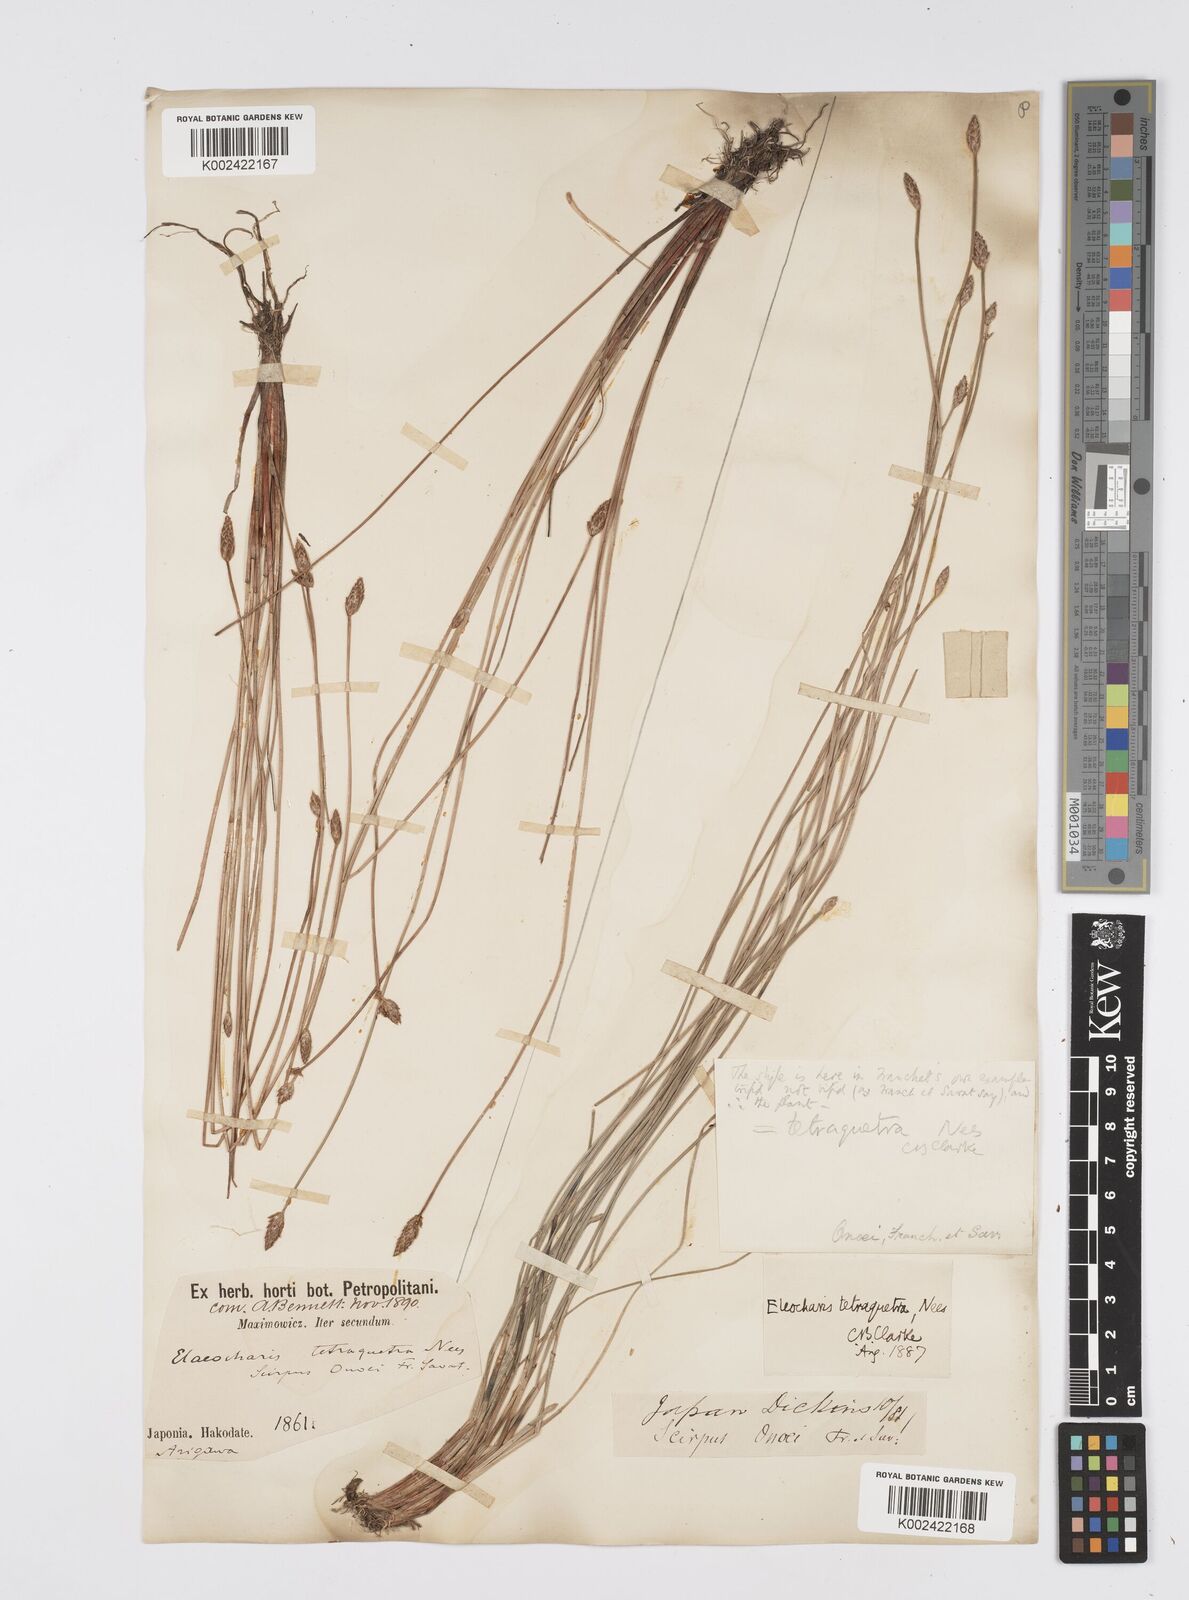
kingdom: Plantae
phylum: Tracheophyta
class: Liliopsida
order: Poales
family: Cyperaceae
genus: Eleocharis
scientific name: Eleocharis tetraquetra
